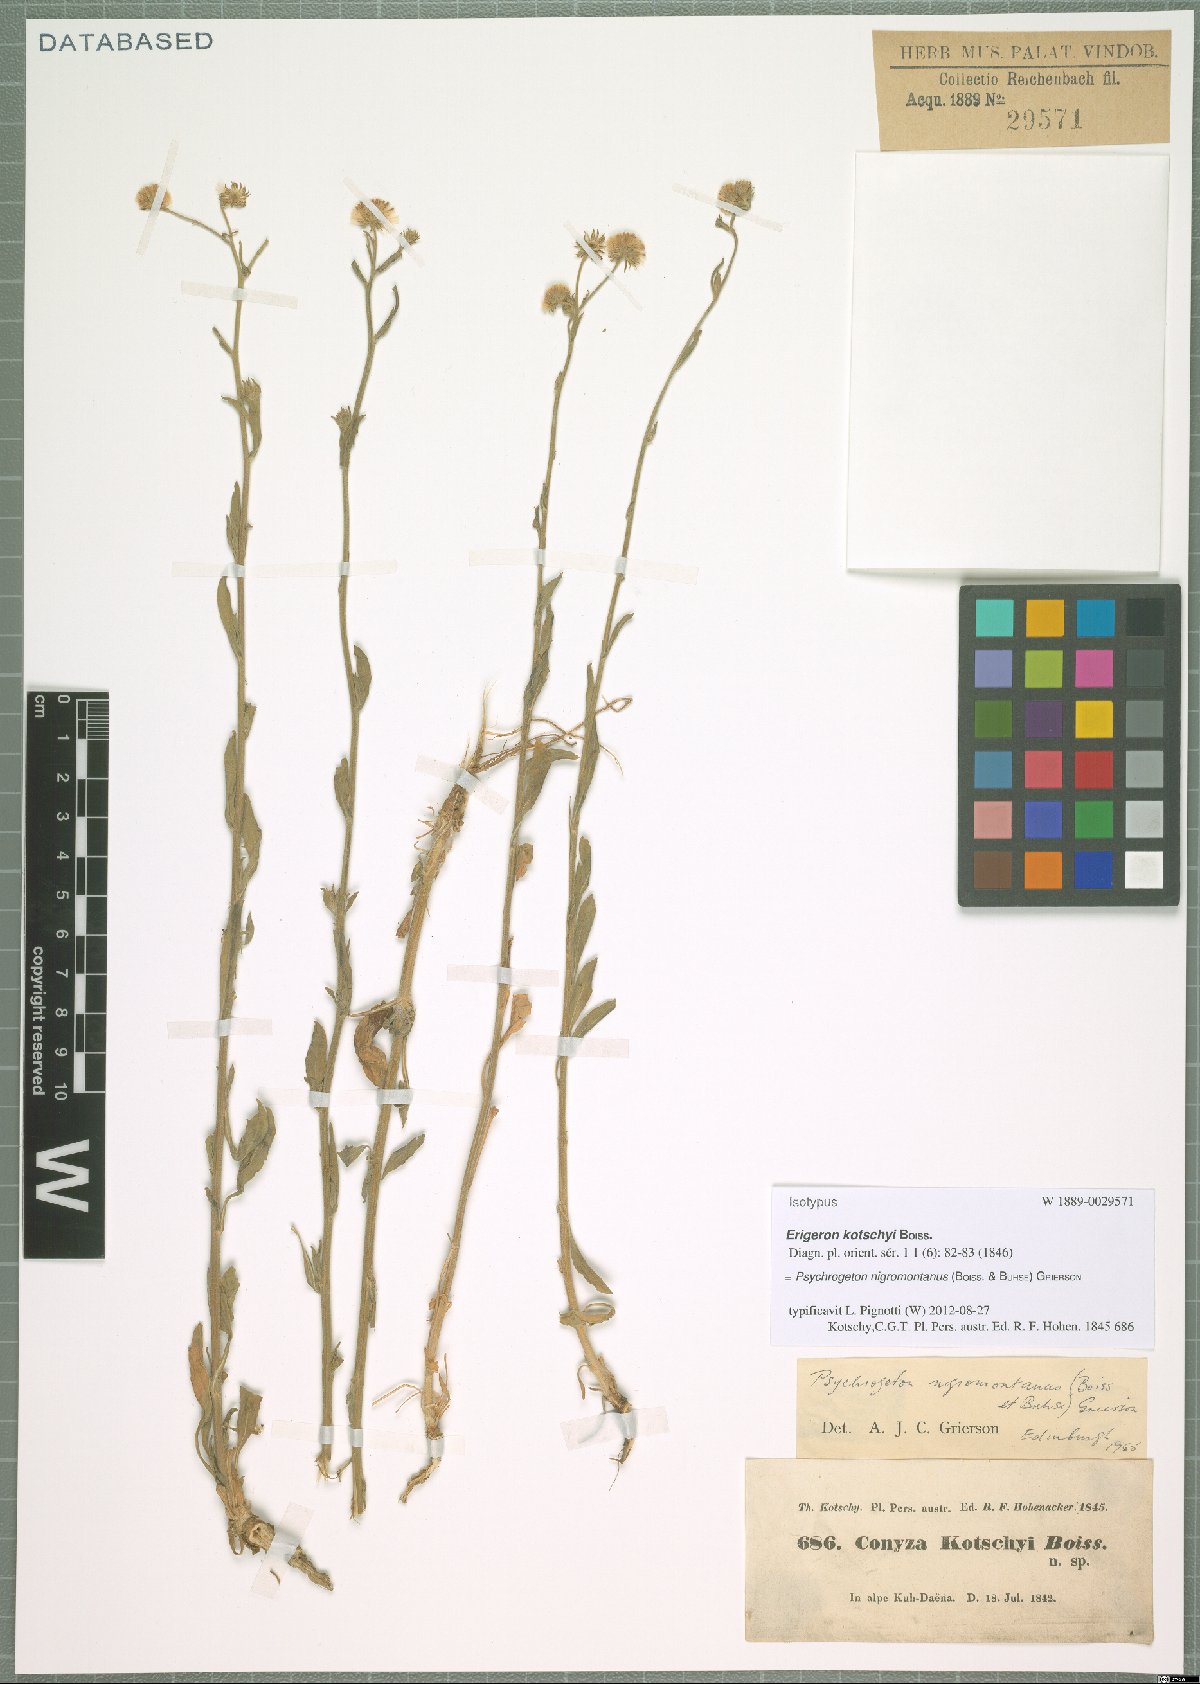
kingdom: Plantae
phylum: Tracheophyta
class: Magnoliopsida
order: Asterales
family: Asteraceae
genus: Psychrogeton
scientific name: Psychrogeton nigromontanus
